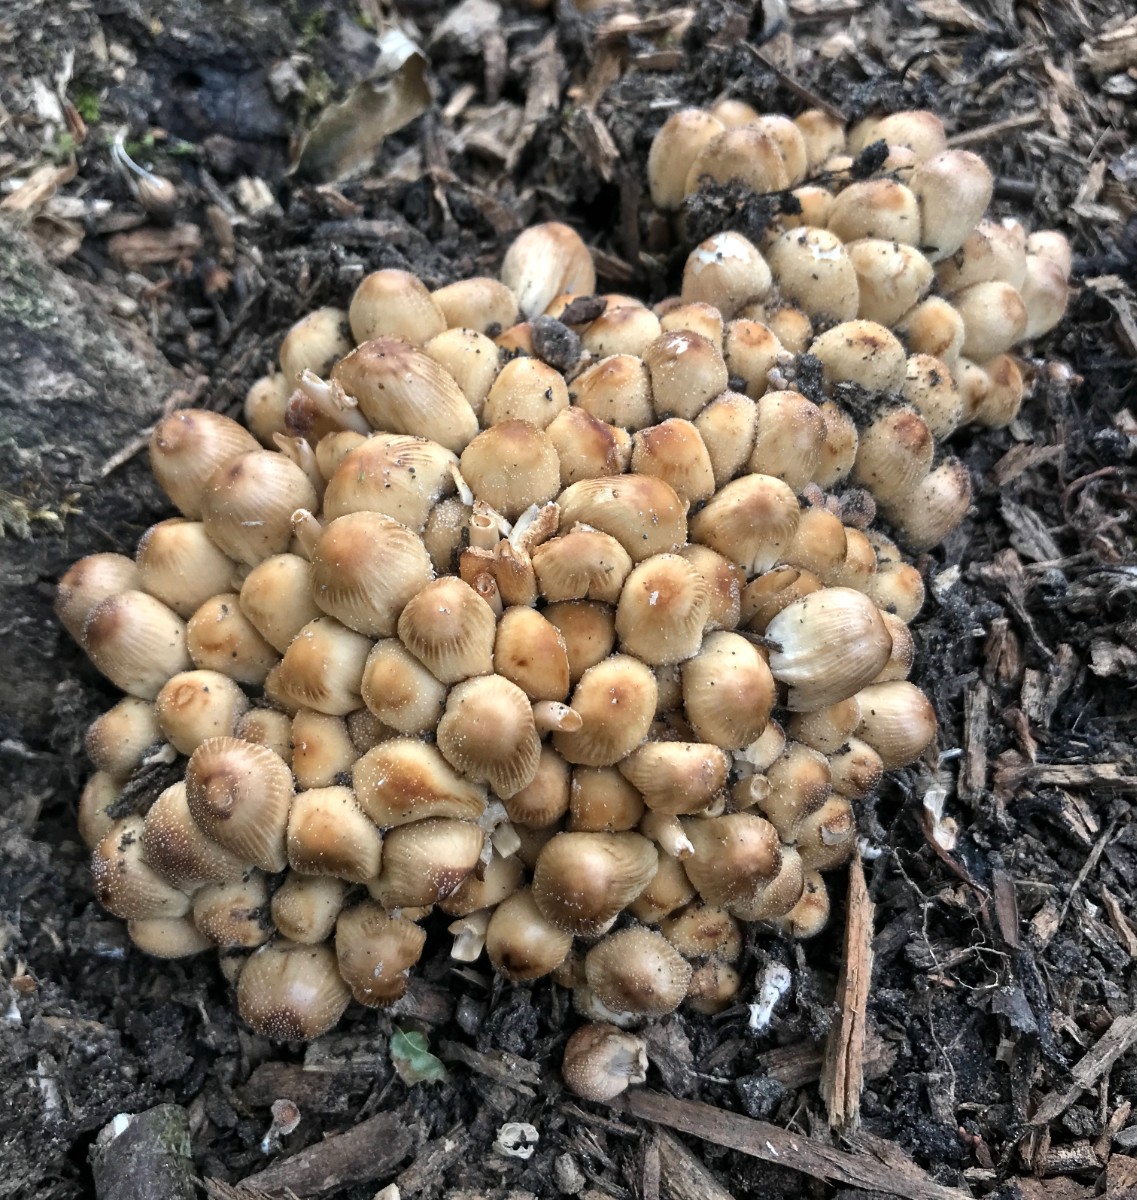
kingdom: Fungi
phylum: Basidiomycota
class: Agaricomycetes
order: Agaricales
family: Psathyrellaceae
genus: Coprinellus
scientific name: Coprinellus micaceus
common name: glimmer-blækhat
